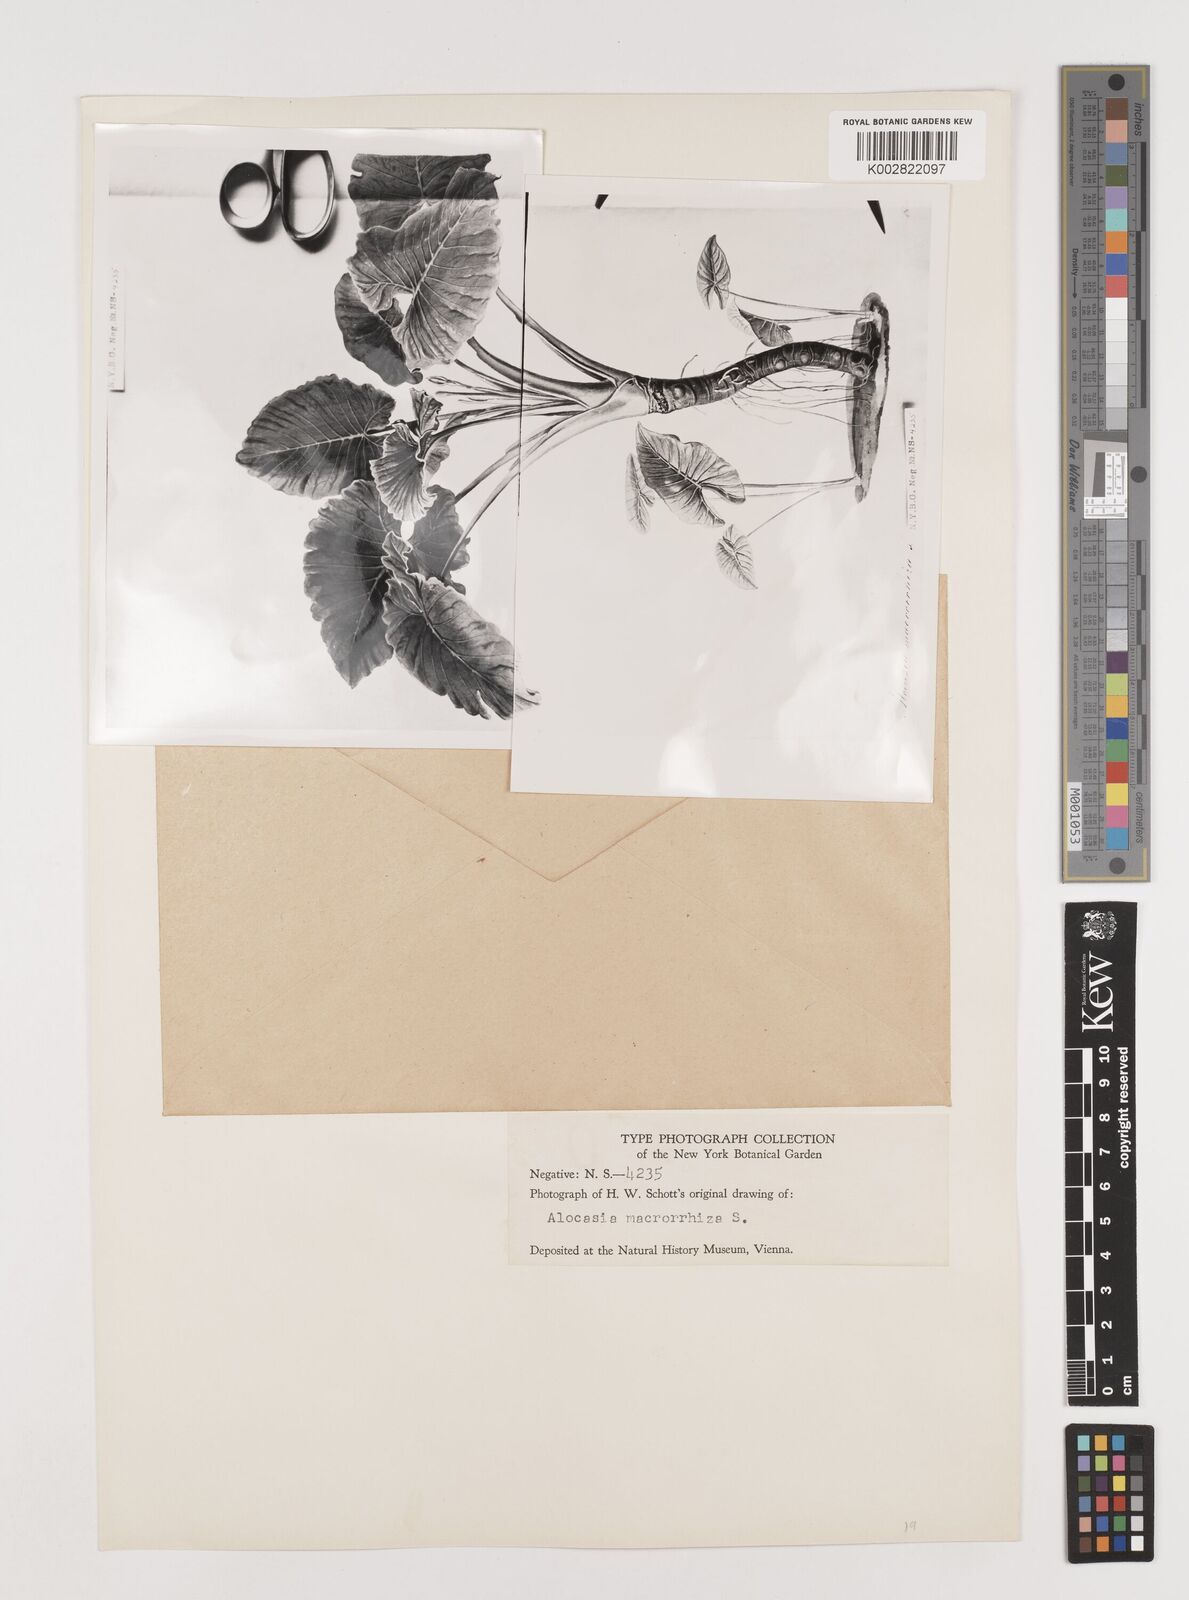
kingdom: Plantae
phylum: Tracheophyta
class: Liliopsida
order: Alismatales
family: Araceae
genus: Alocasia
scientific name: Alocasia macrorrhizos
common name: Giant taro
